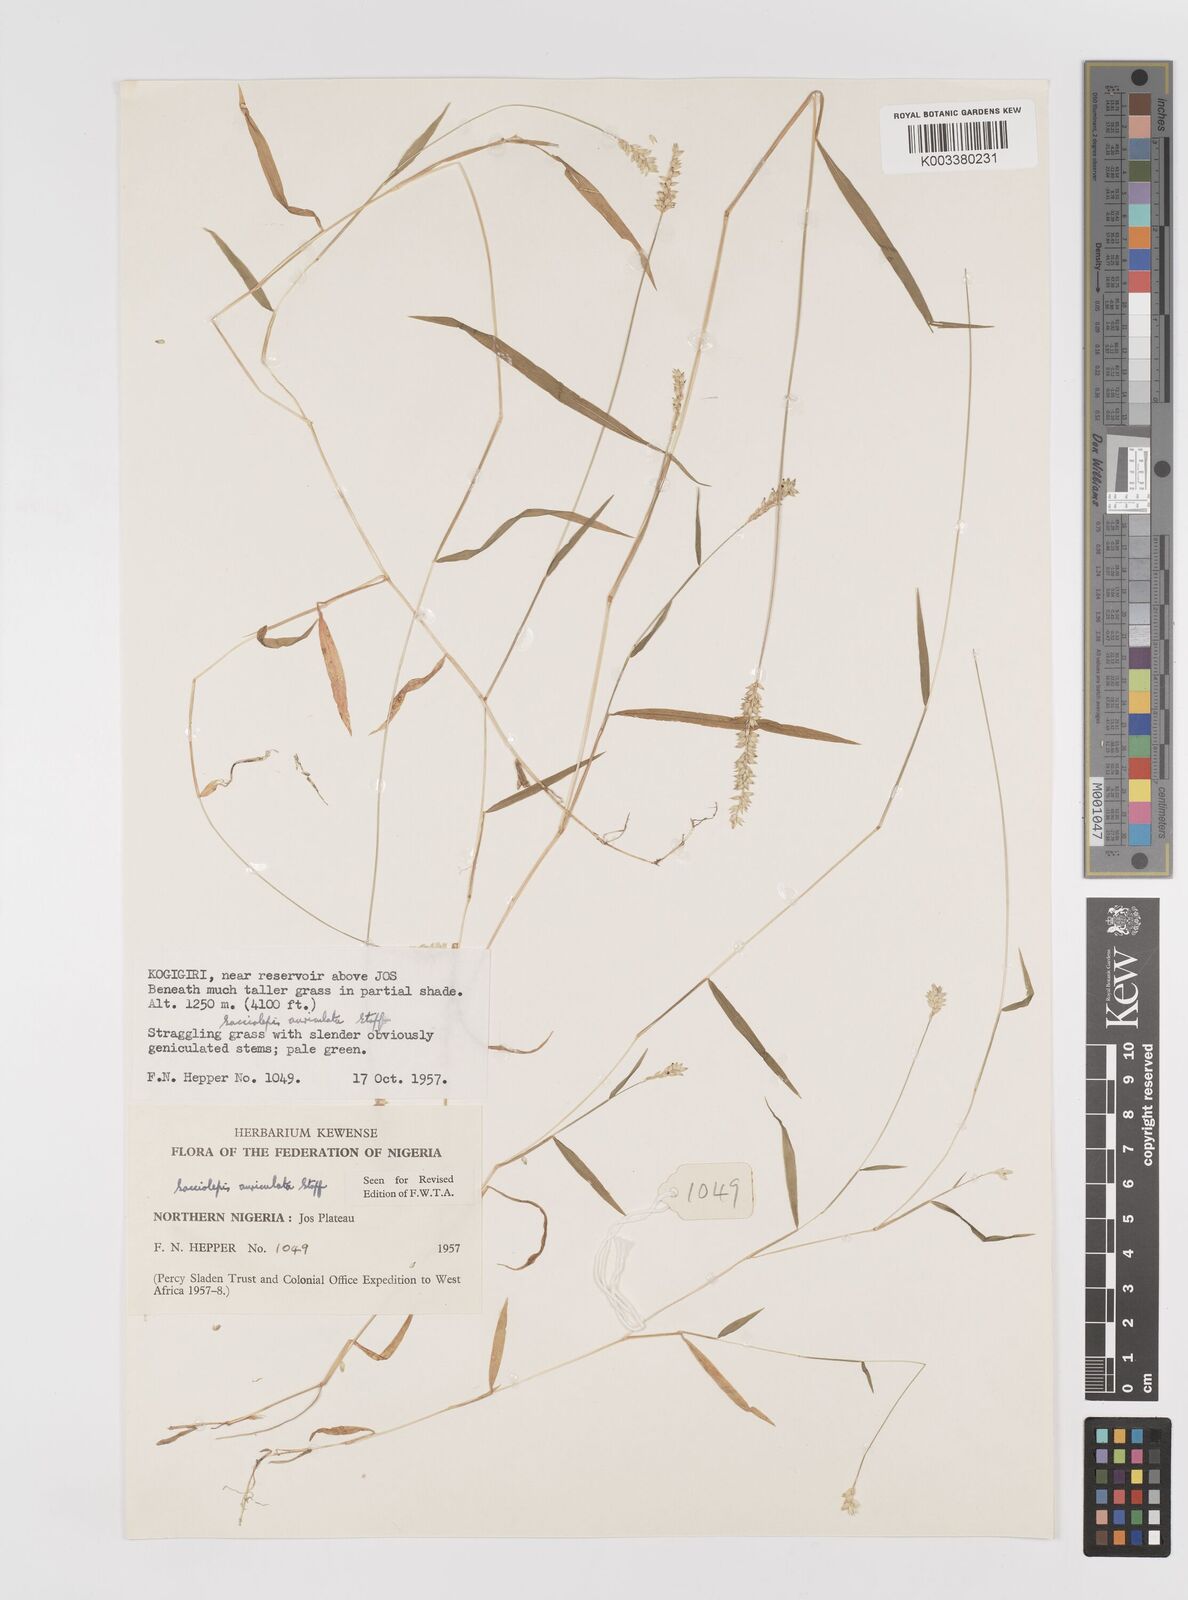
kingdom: Plantae
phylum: Tracheophyta
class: Liliopsida
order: Poales
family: Poaceae
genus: Sacciolepis
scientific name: Sacciolepis indica
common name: Glenwoodgrass
